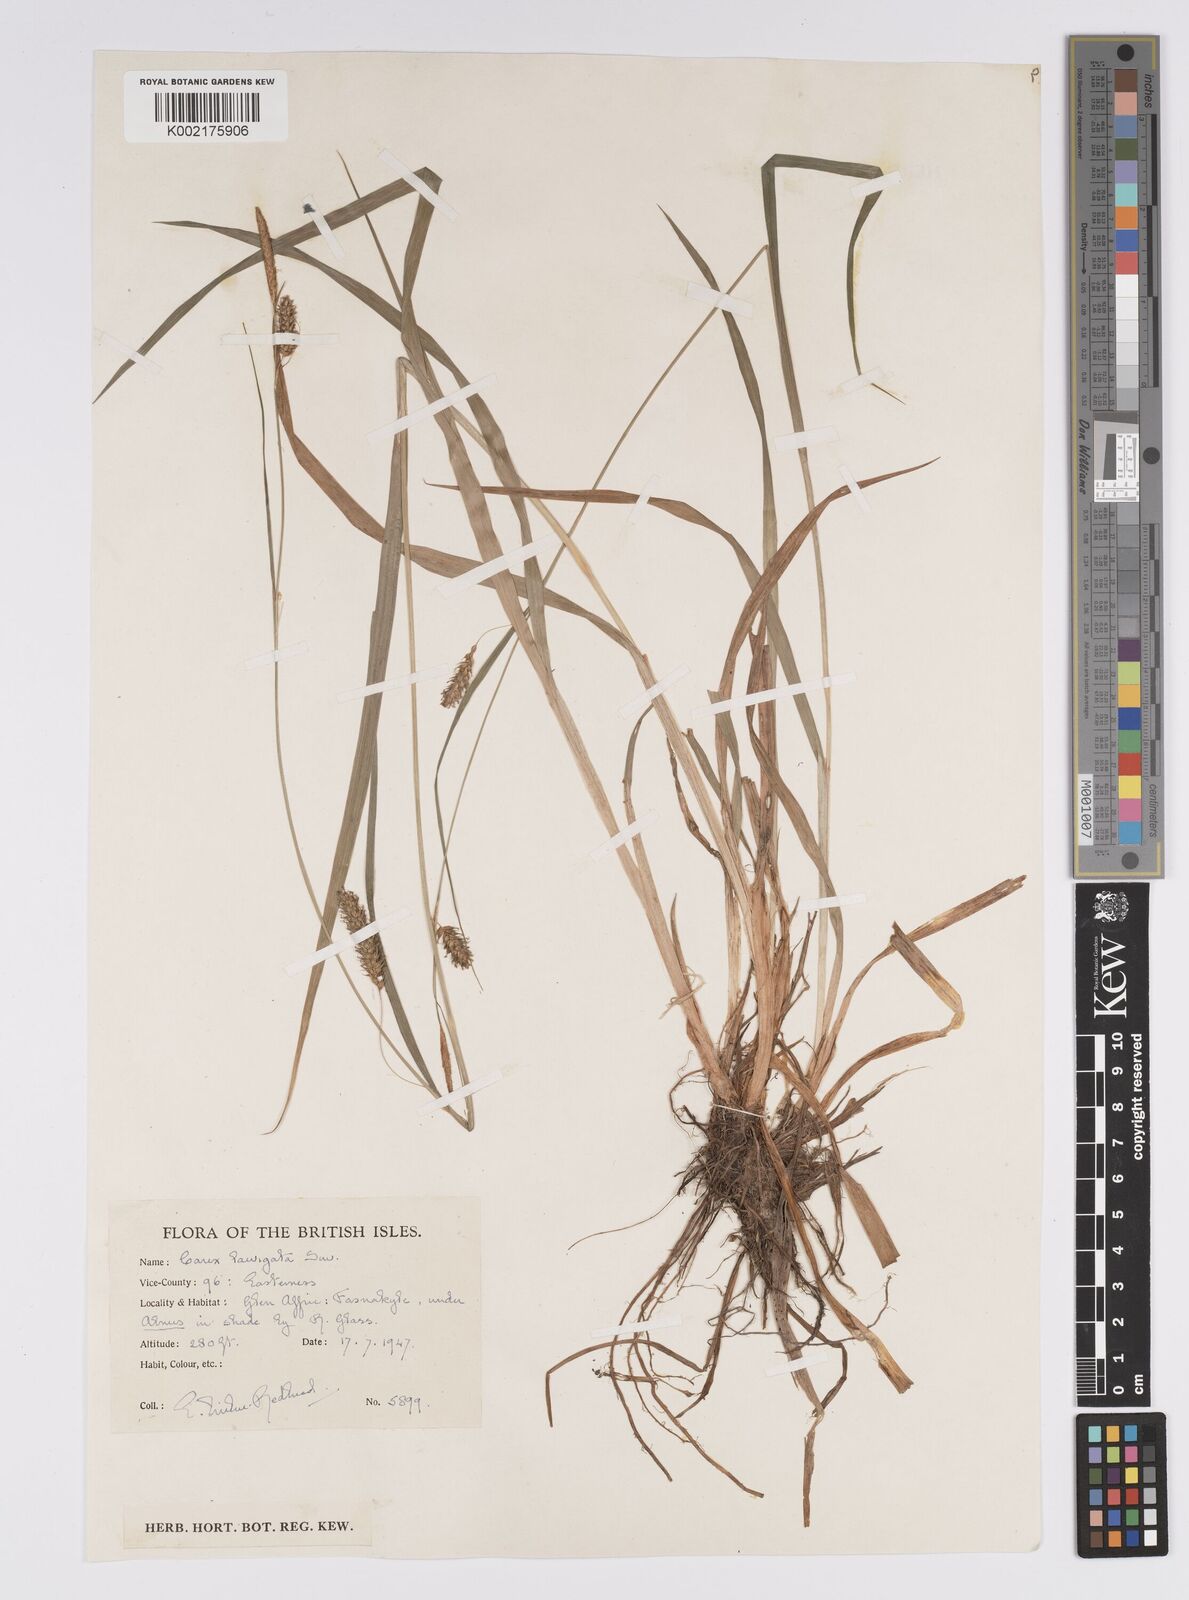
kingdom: Plantae
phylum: Tracheophyta
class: Liliopsida
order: Poales
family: Cyperaceae
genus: Carex
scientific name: Carex laevigata
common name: Smooth-stalked sedge
